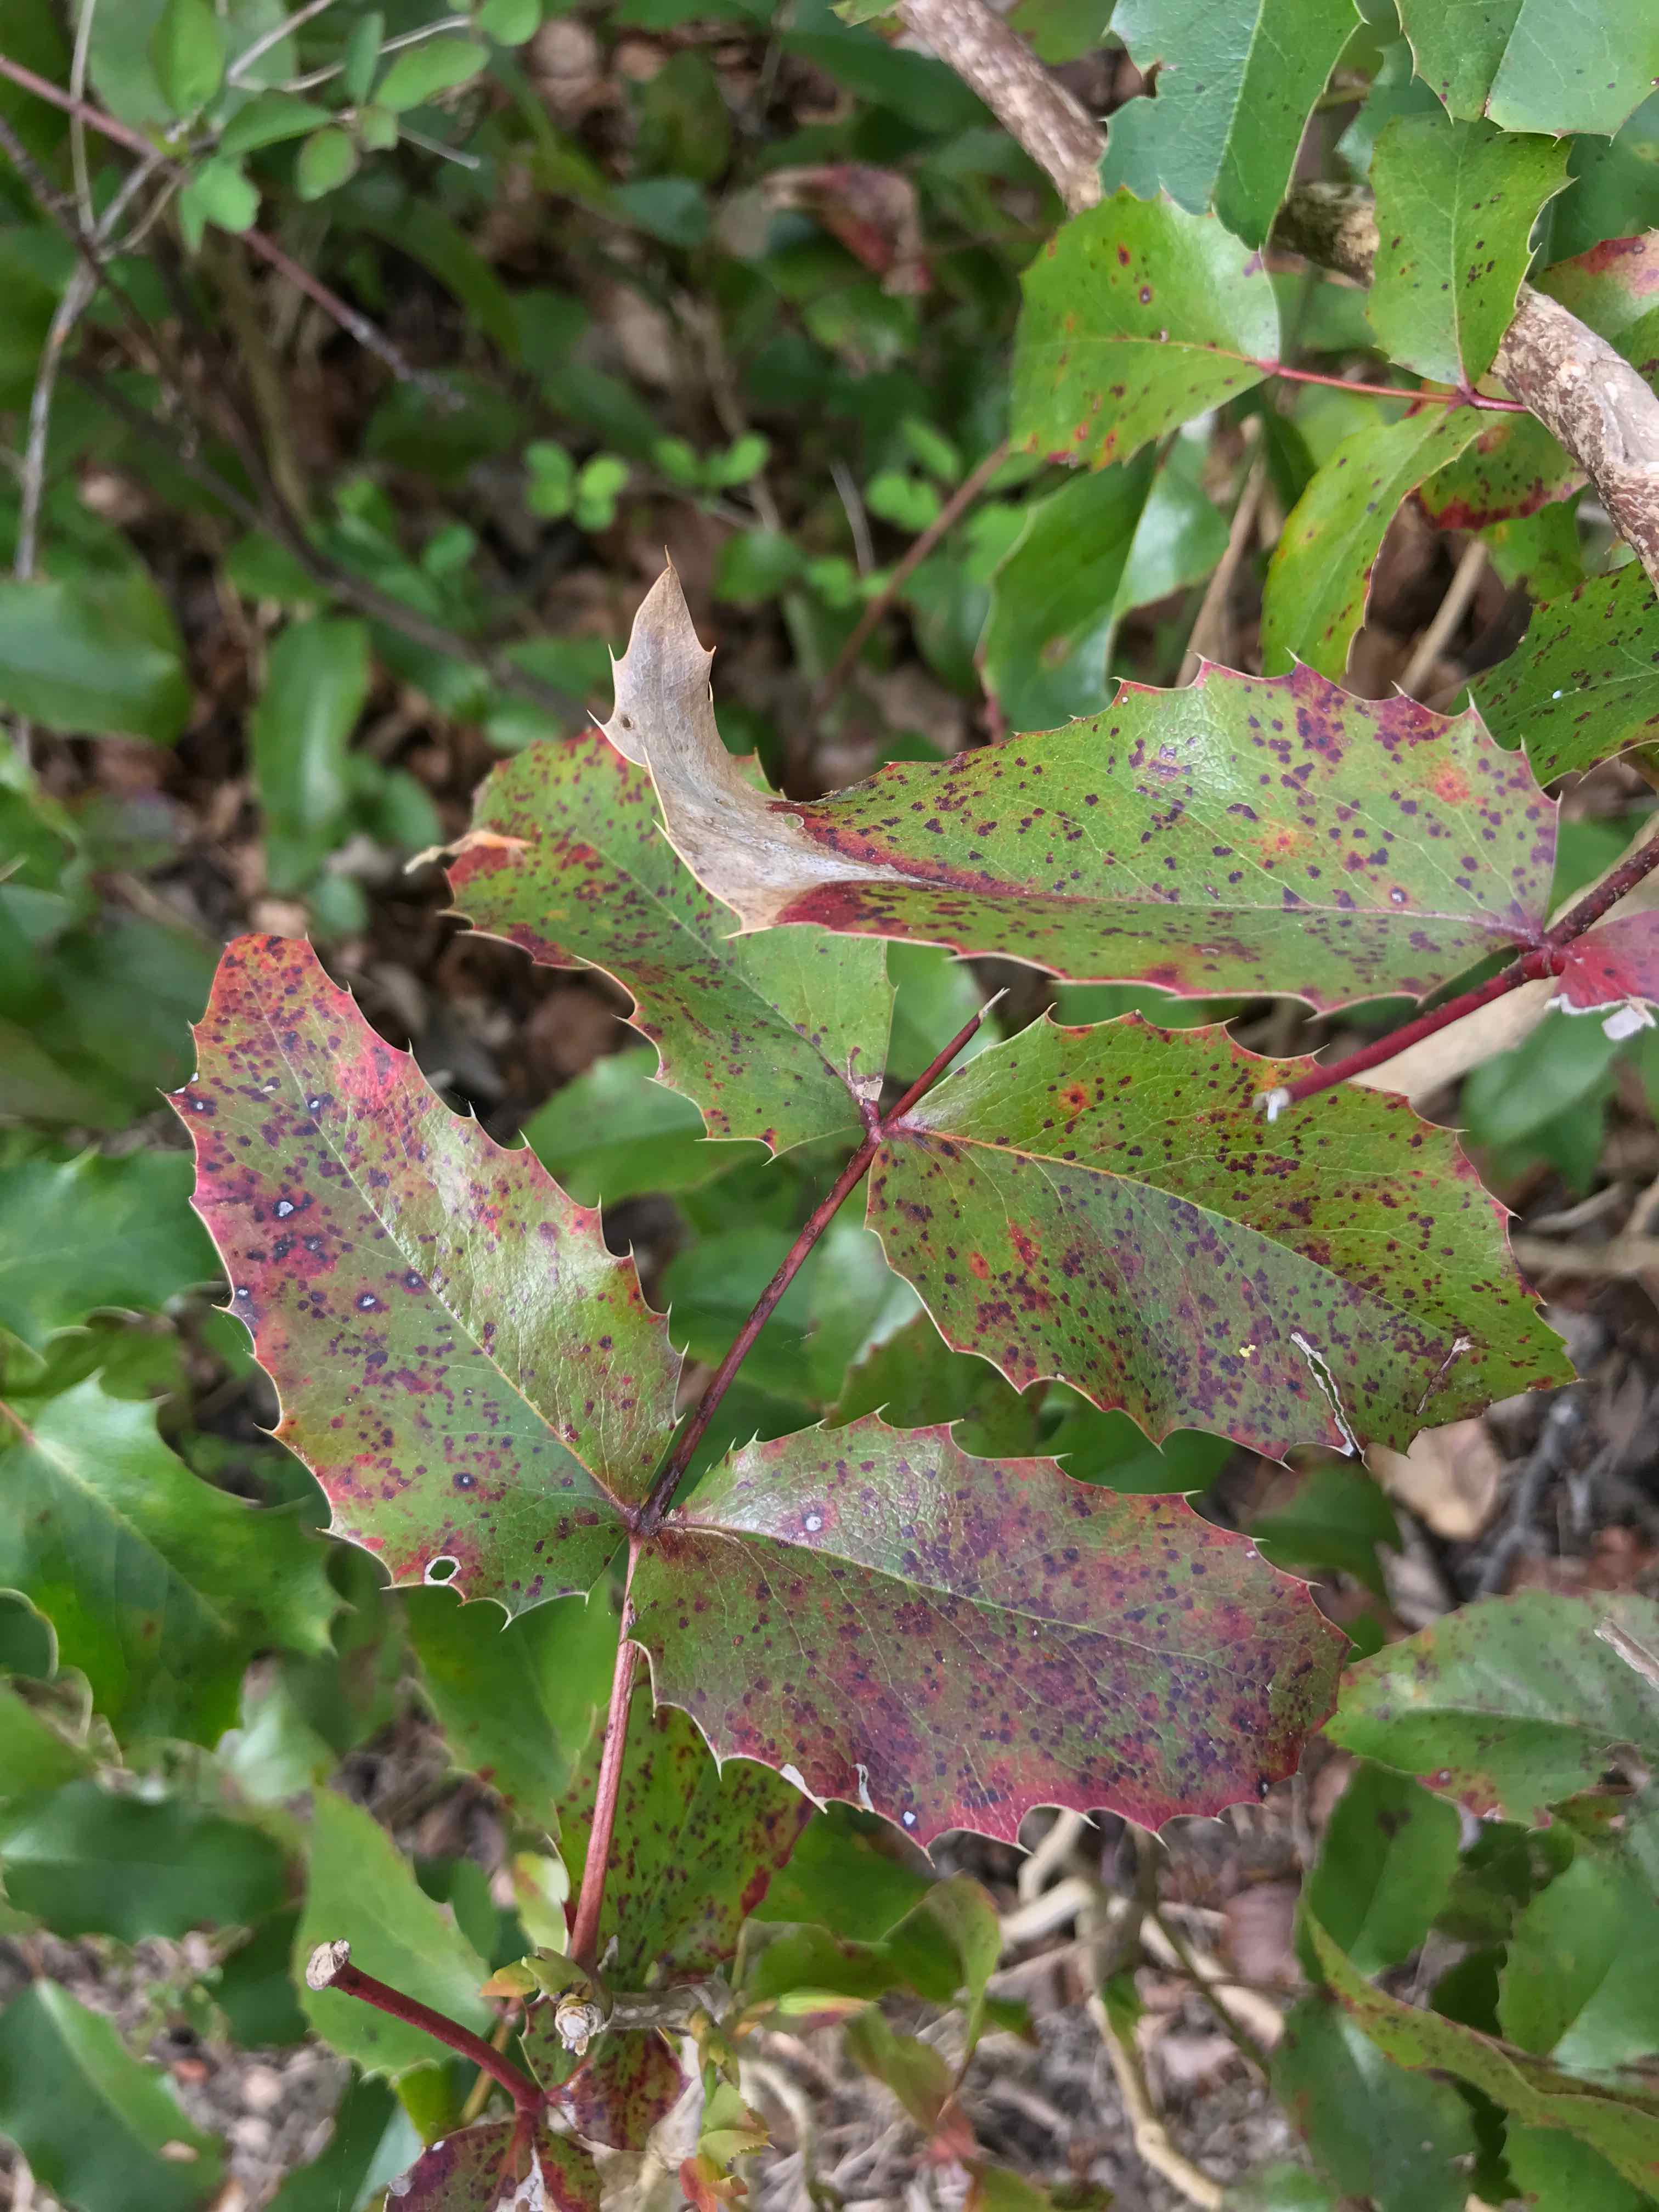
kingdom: Fungi
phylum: Basidiomycota
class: Pucciniomycetes
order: Pucciniales
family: Pucciniaceae
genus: Cumminsiella
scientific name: Cumminsiella mirabilissima
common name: mahonierust
